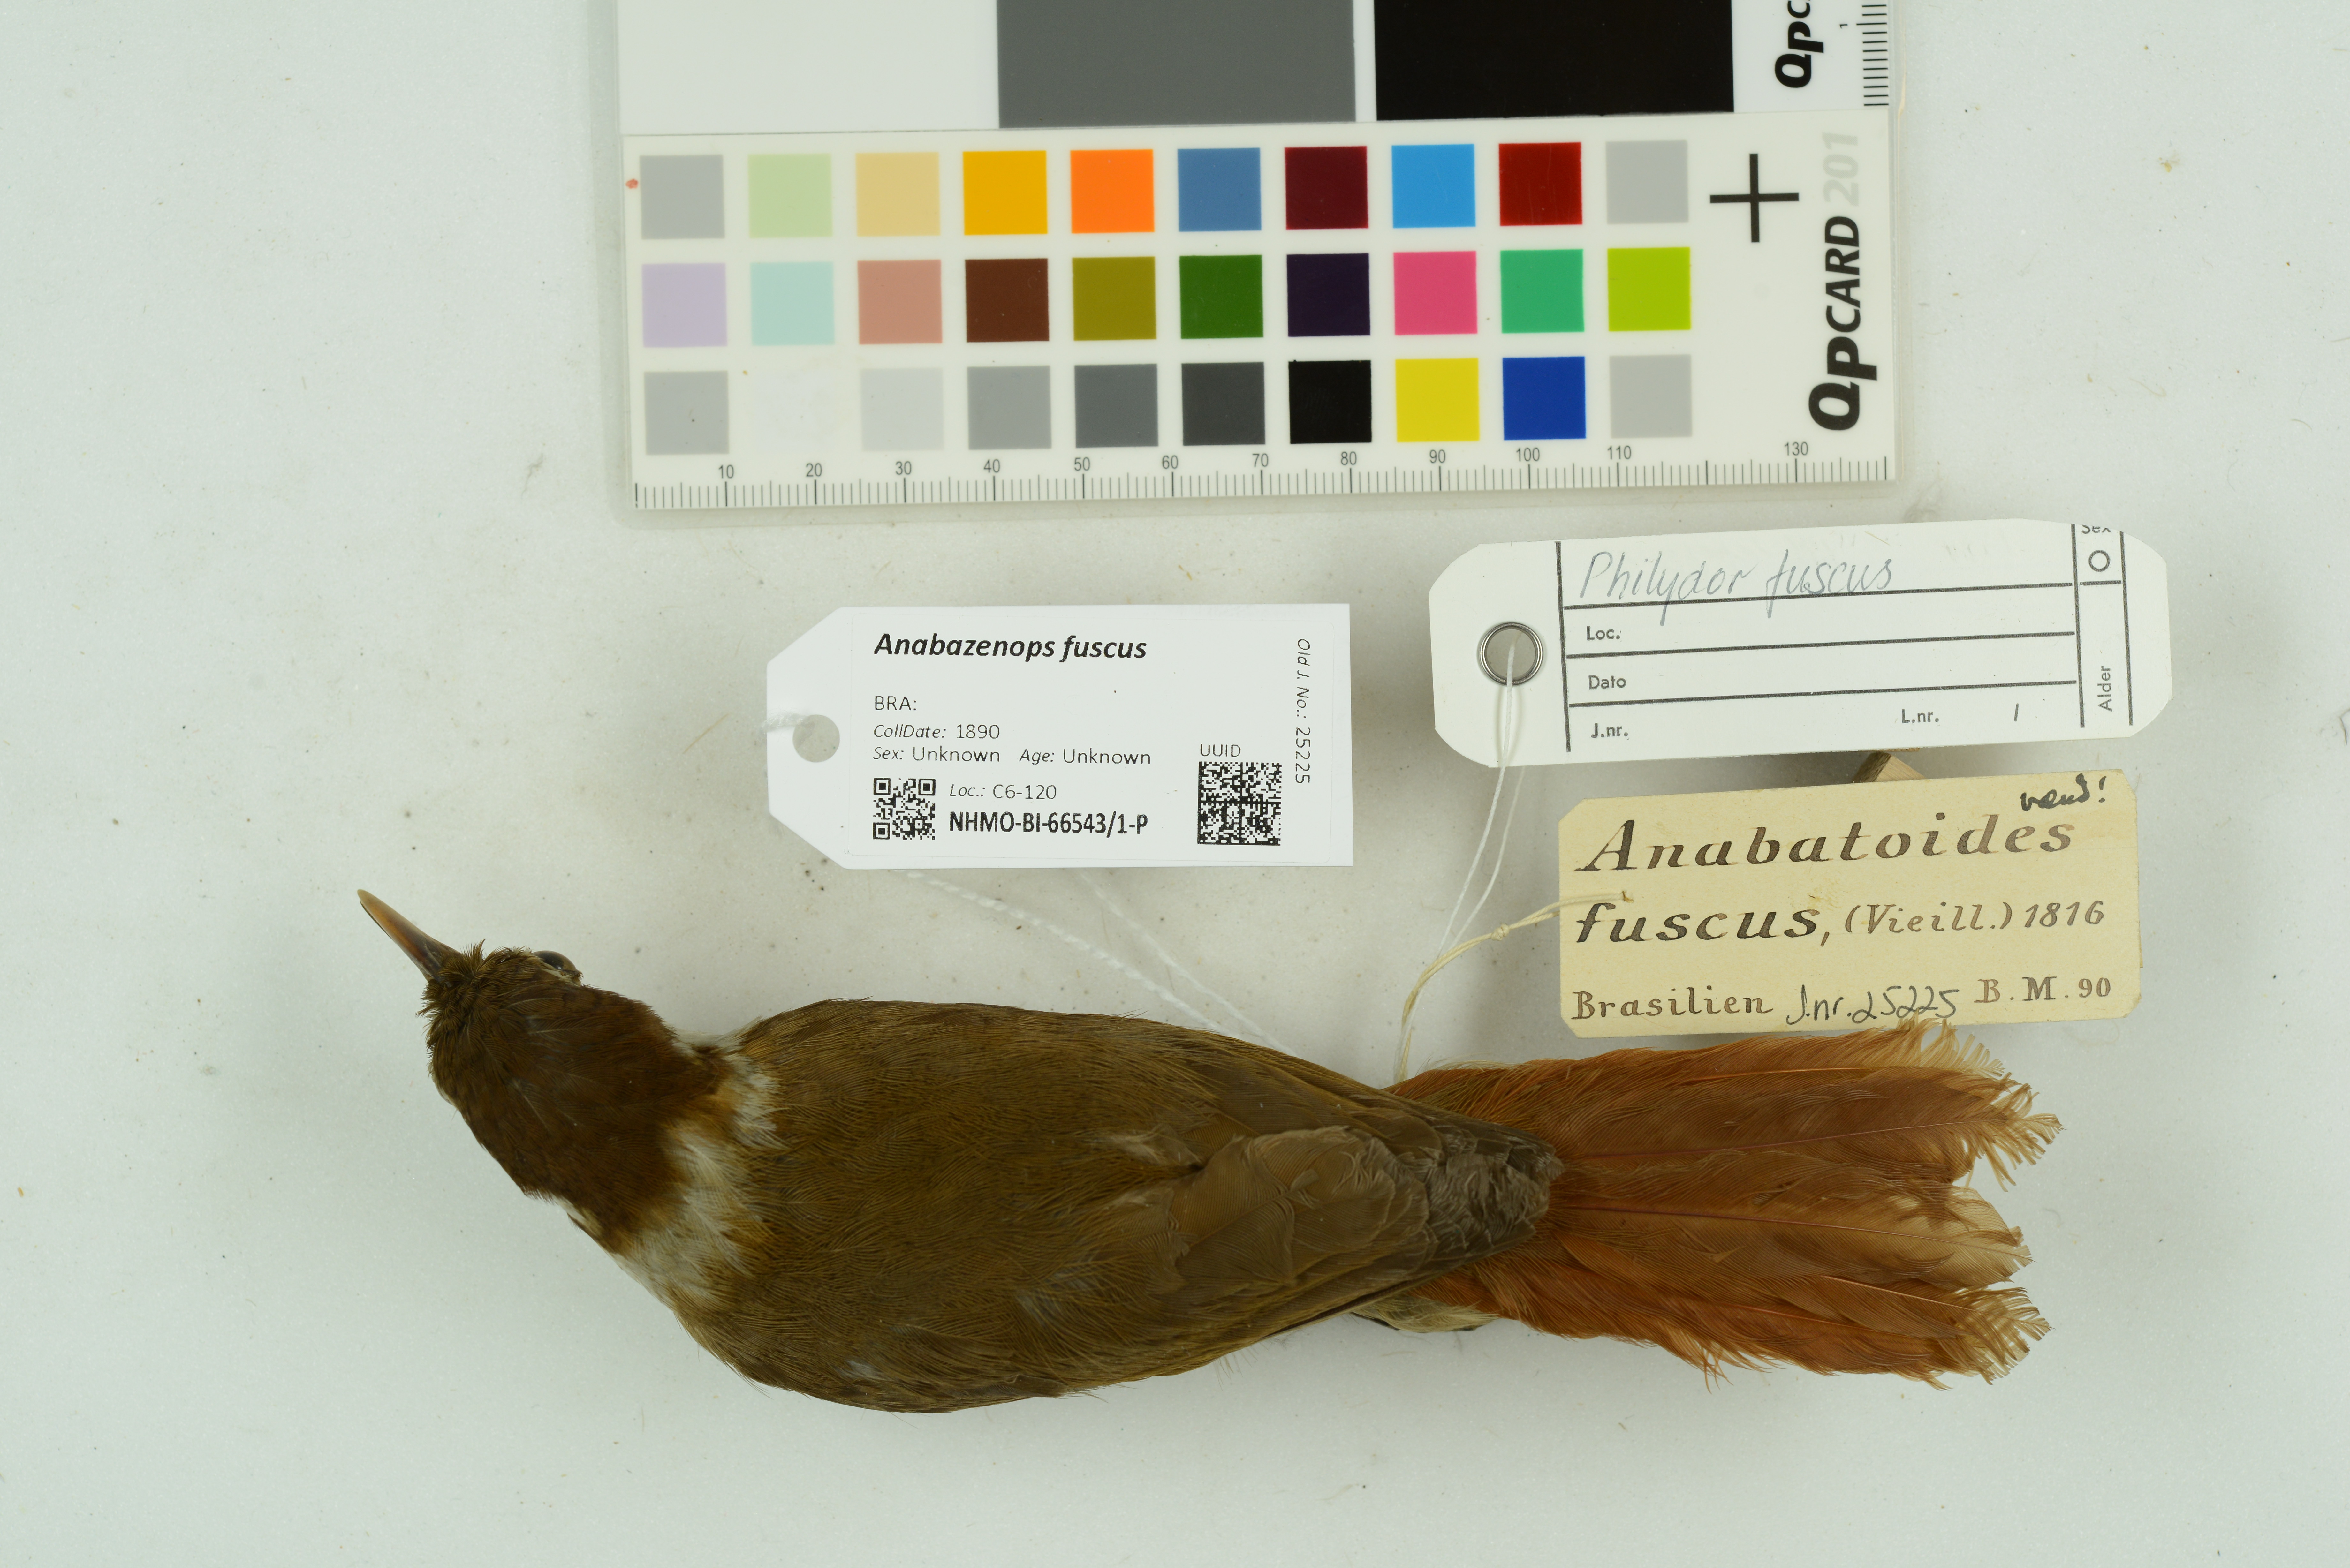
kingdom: Animalia
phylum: Chordata
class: Aves
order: Passeriformes
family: Furnariidae
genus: Anabazenops
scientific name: Anabazenops fuscus
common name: White-collared foliage-gleaner
